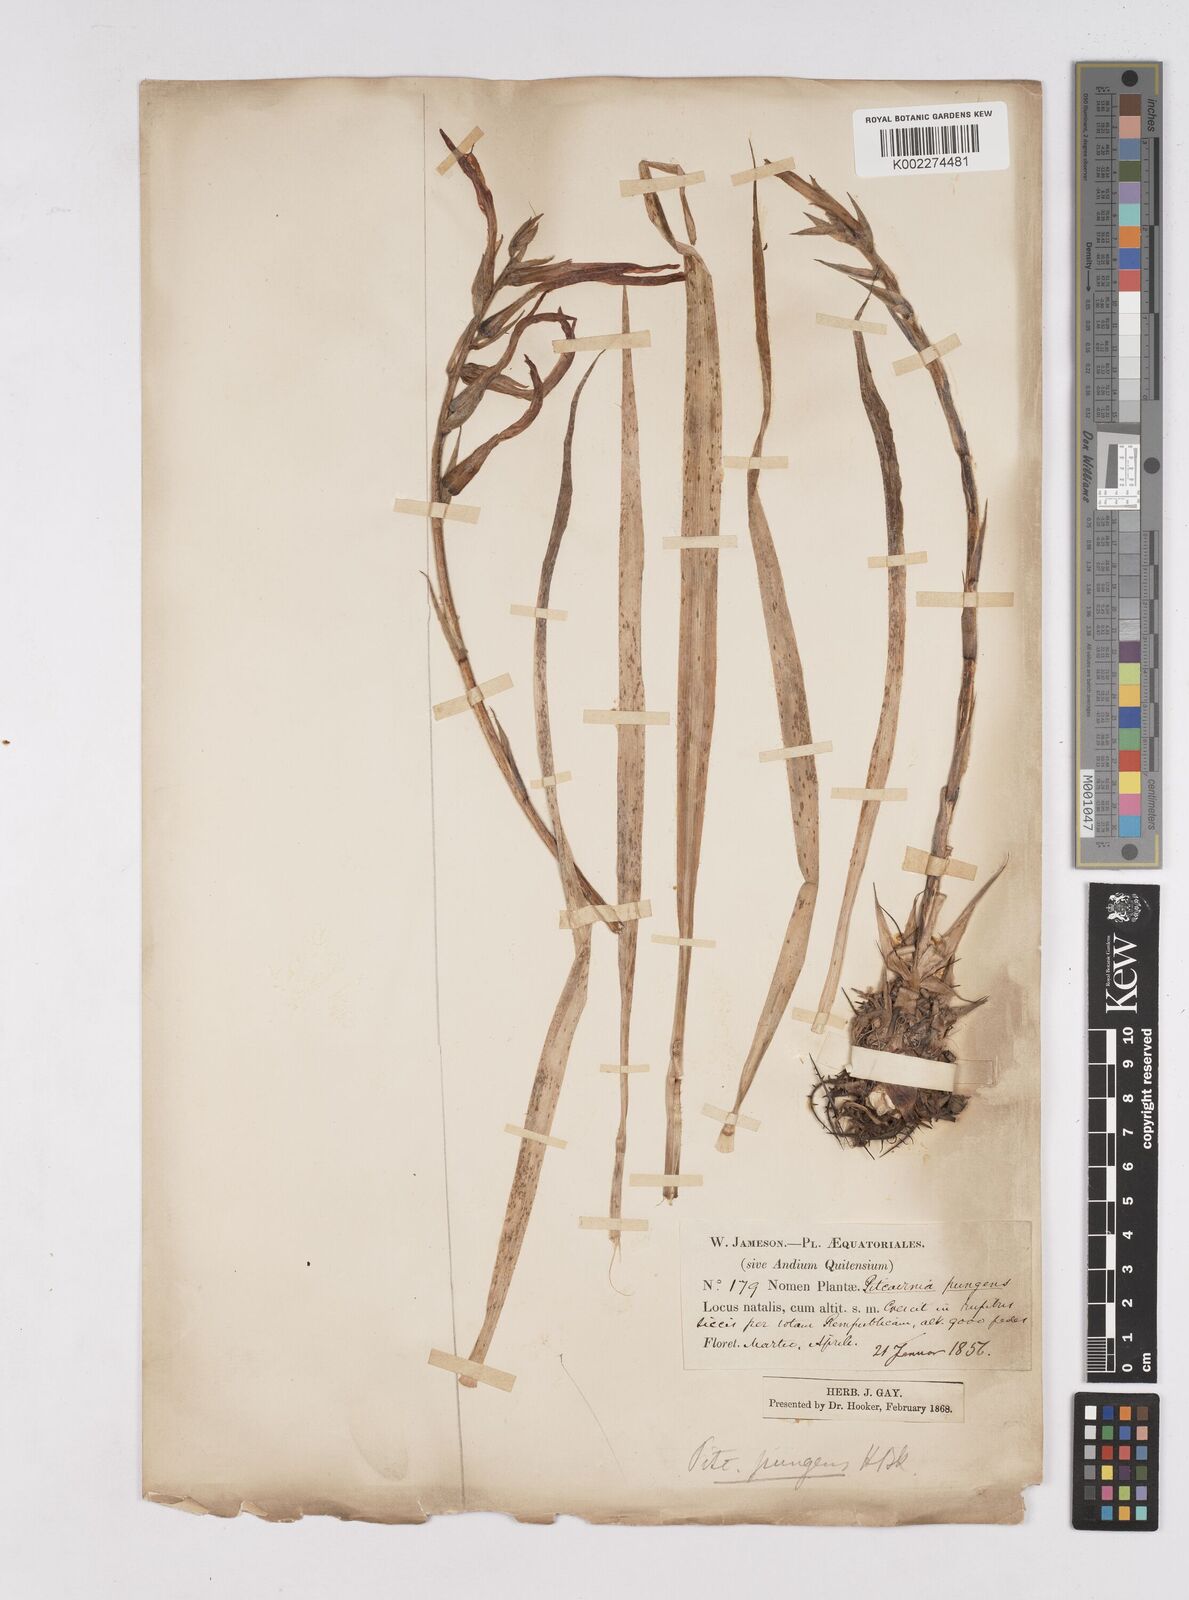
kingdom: Plantae
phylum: Tracheophyta
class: Liliopsida
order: Poales
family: Bromeliaceae
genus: Pitcairnia
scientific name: Pitcairnia pungens
